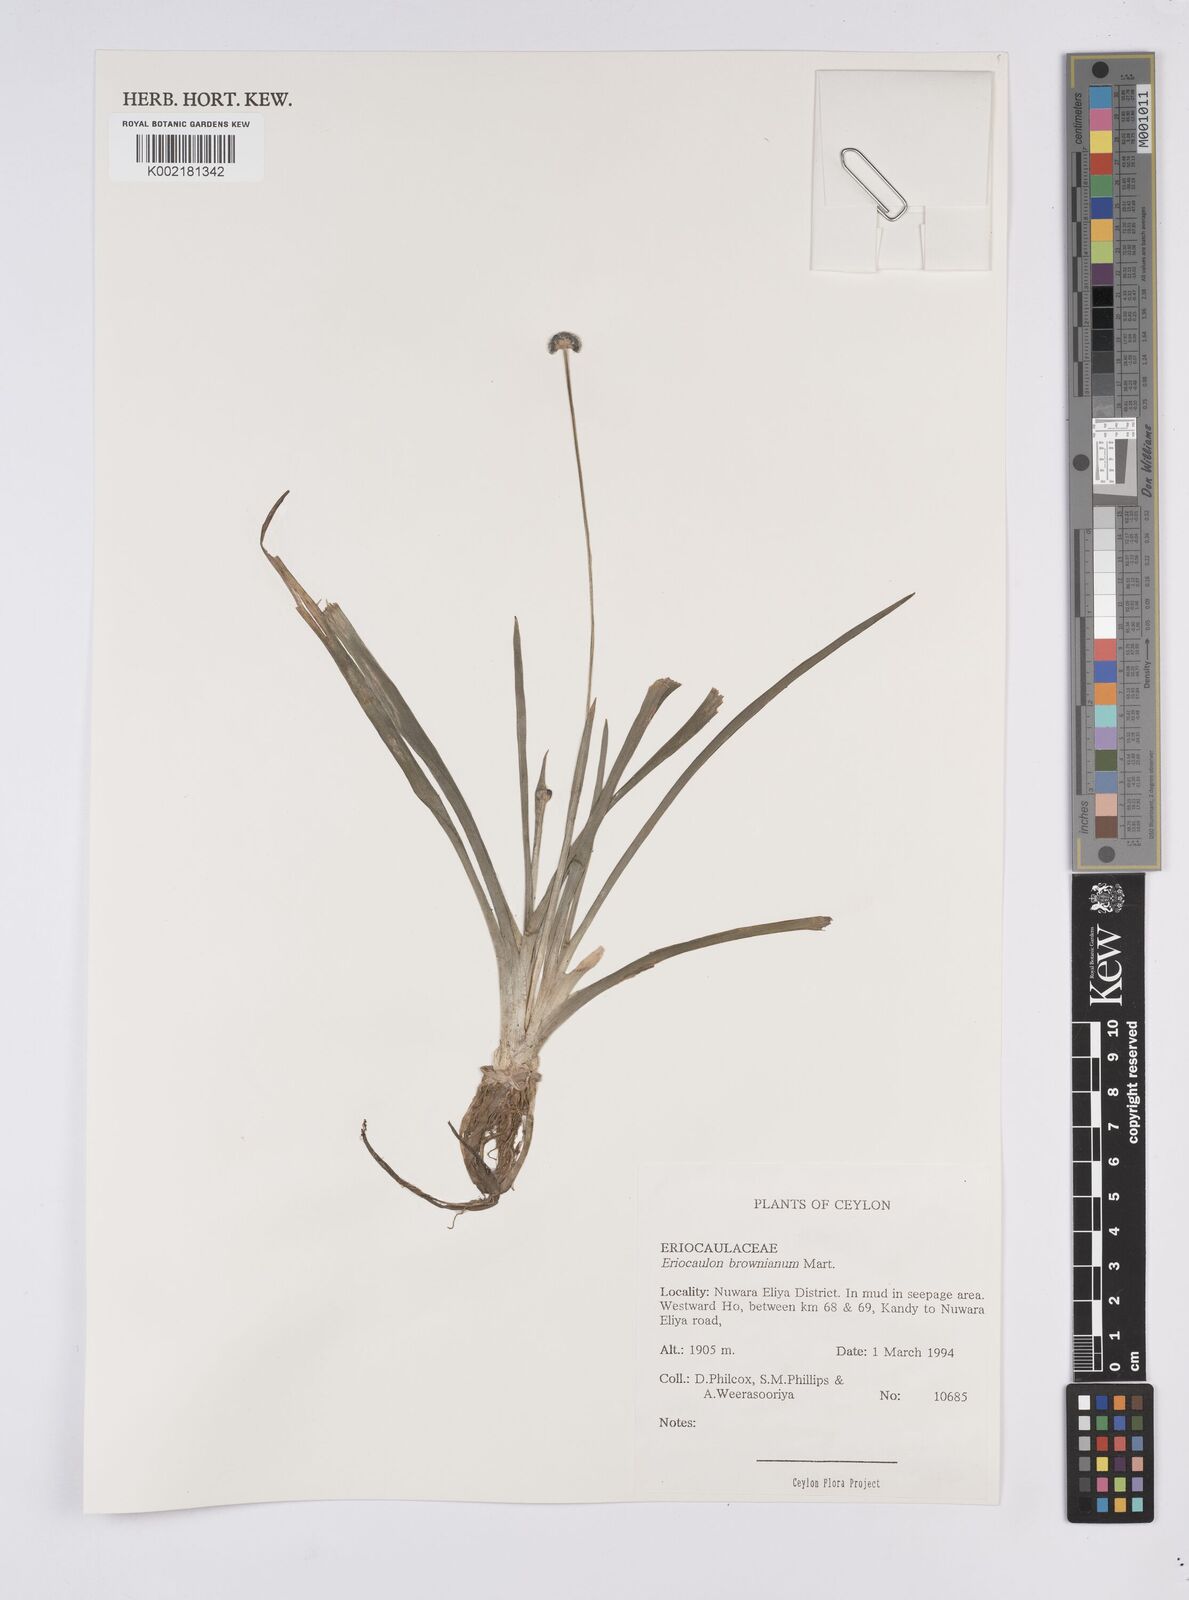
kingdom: Plantae
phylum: Tracheophyta
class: Liliopsida
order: Poales
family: Eriocaulaceae
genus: Eriocaulon
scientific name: Eriocaulon brownianum
